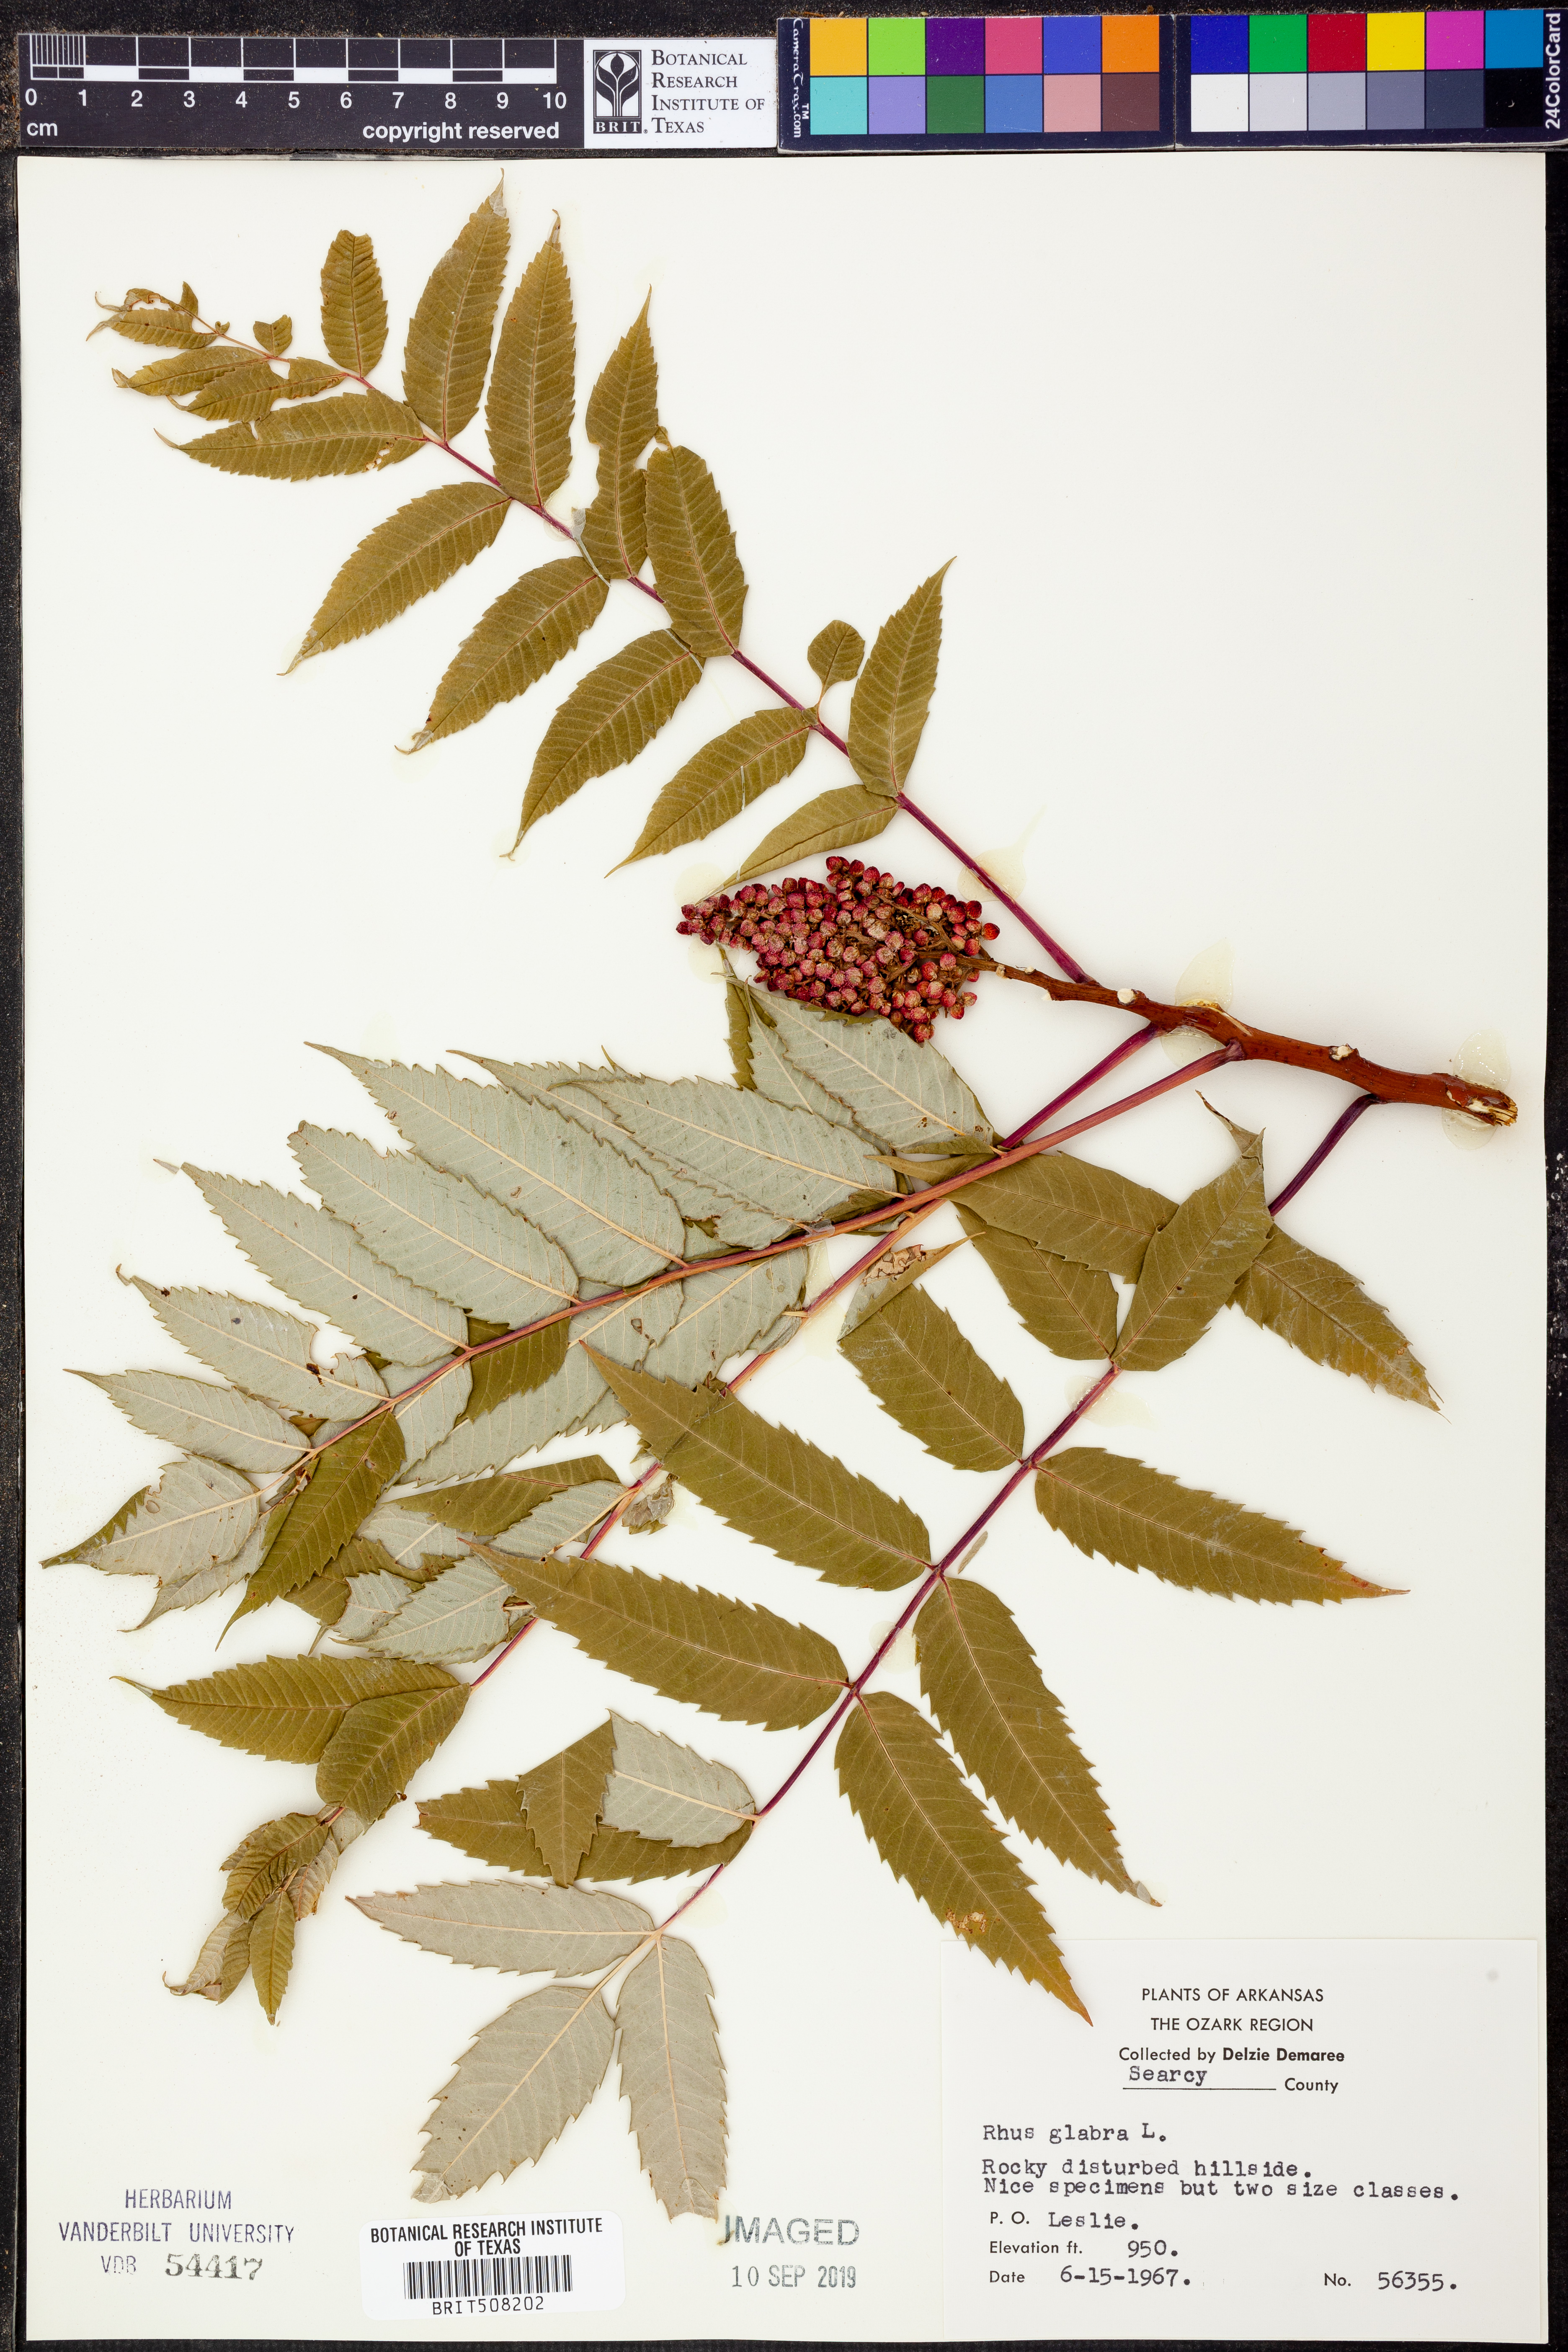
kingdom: Plantae
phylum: Tracheophyta
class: Magnoliopsida
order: Sapindales
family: Anacardiaceae
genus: Rhus
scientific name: Rhus glabra
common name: Scarlet sumac
